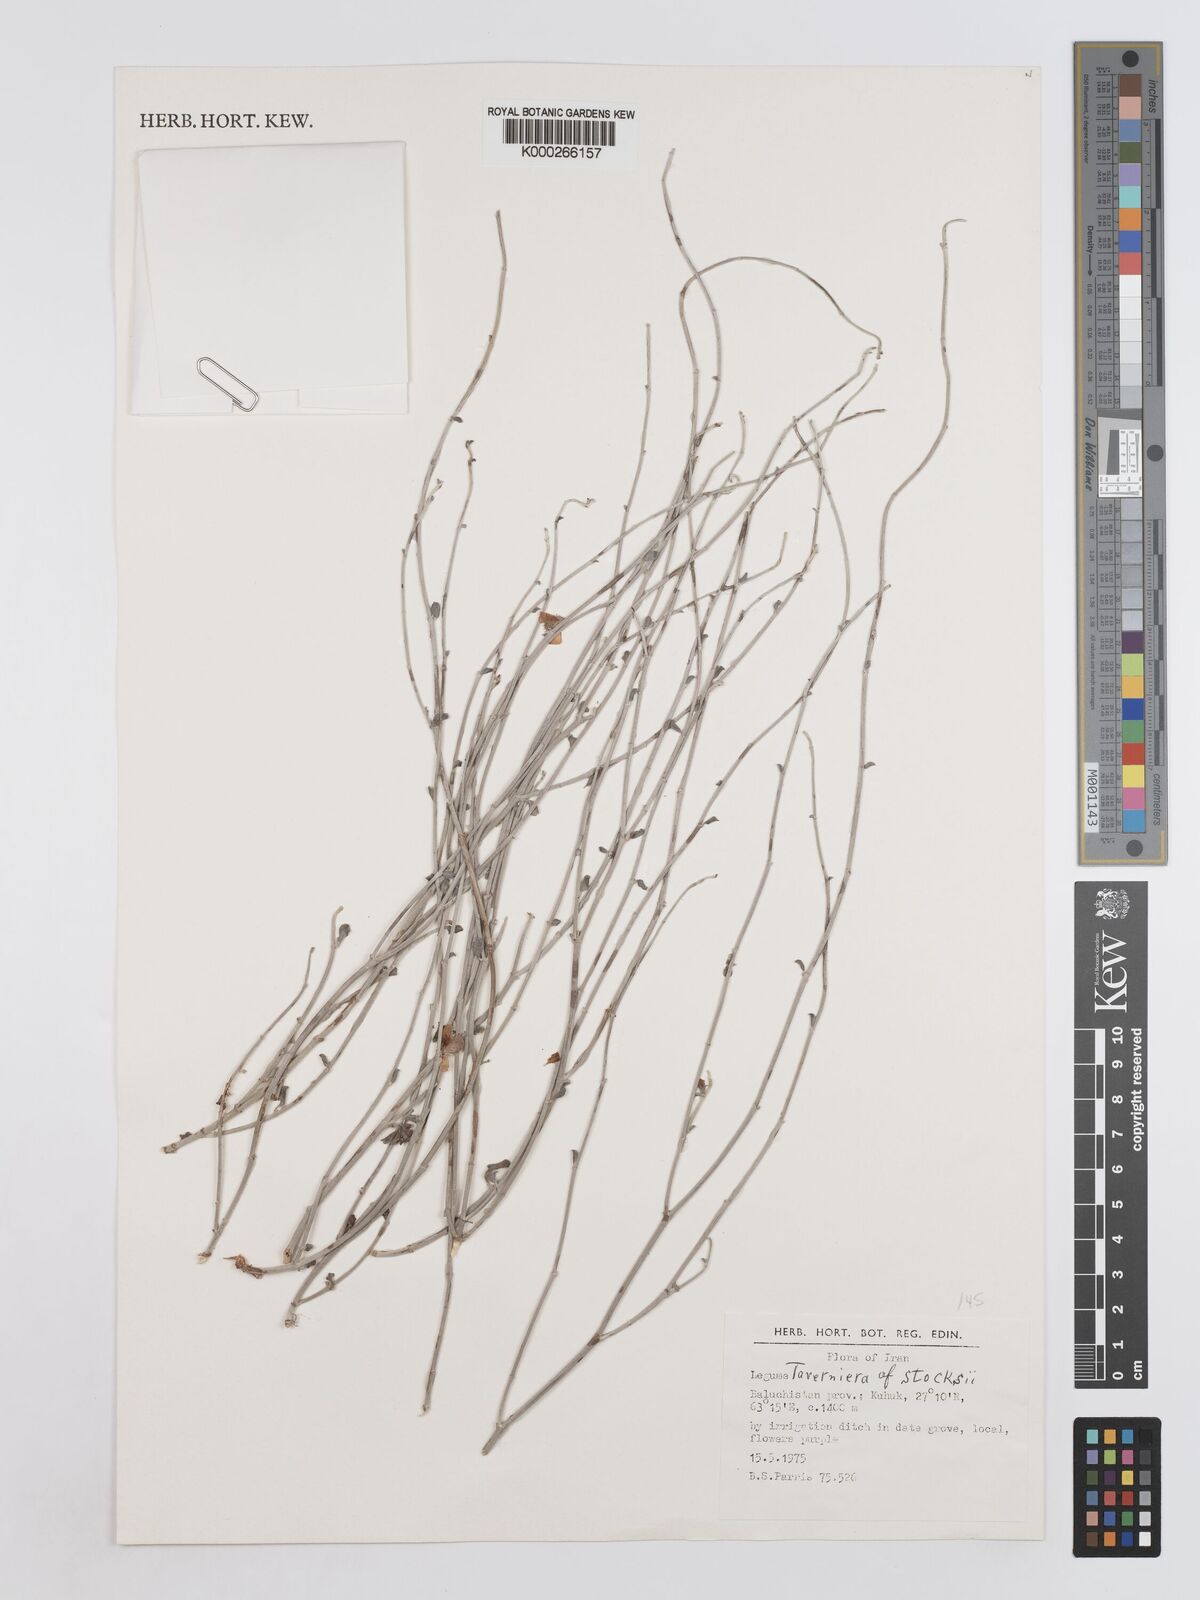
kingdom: Plantae
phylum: Tracheophyta
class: Magnoliopsida
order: Fabales
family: Fabaceae
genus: Taverniera
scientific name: Taverniera
